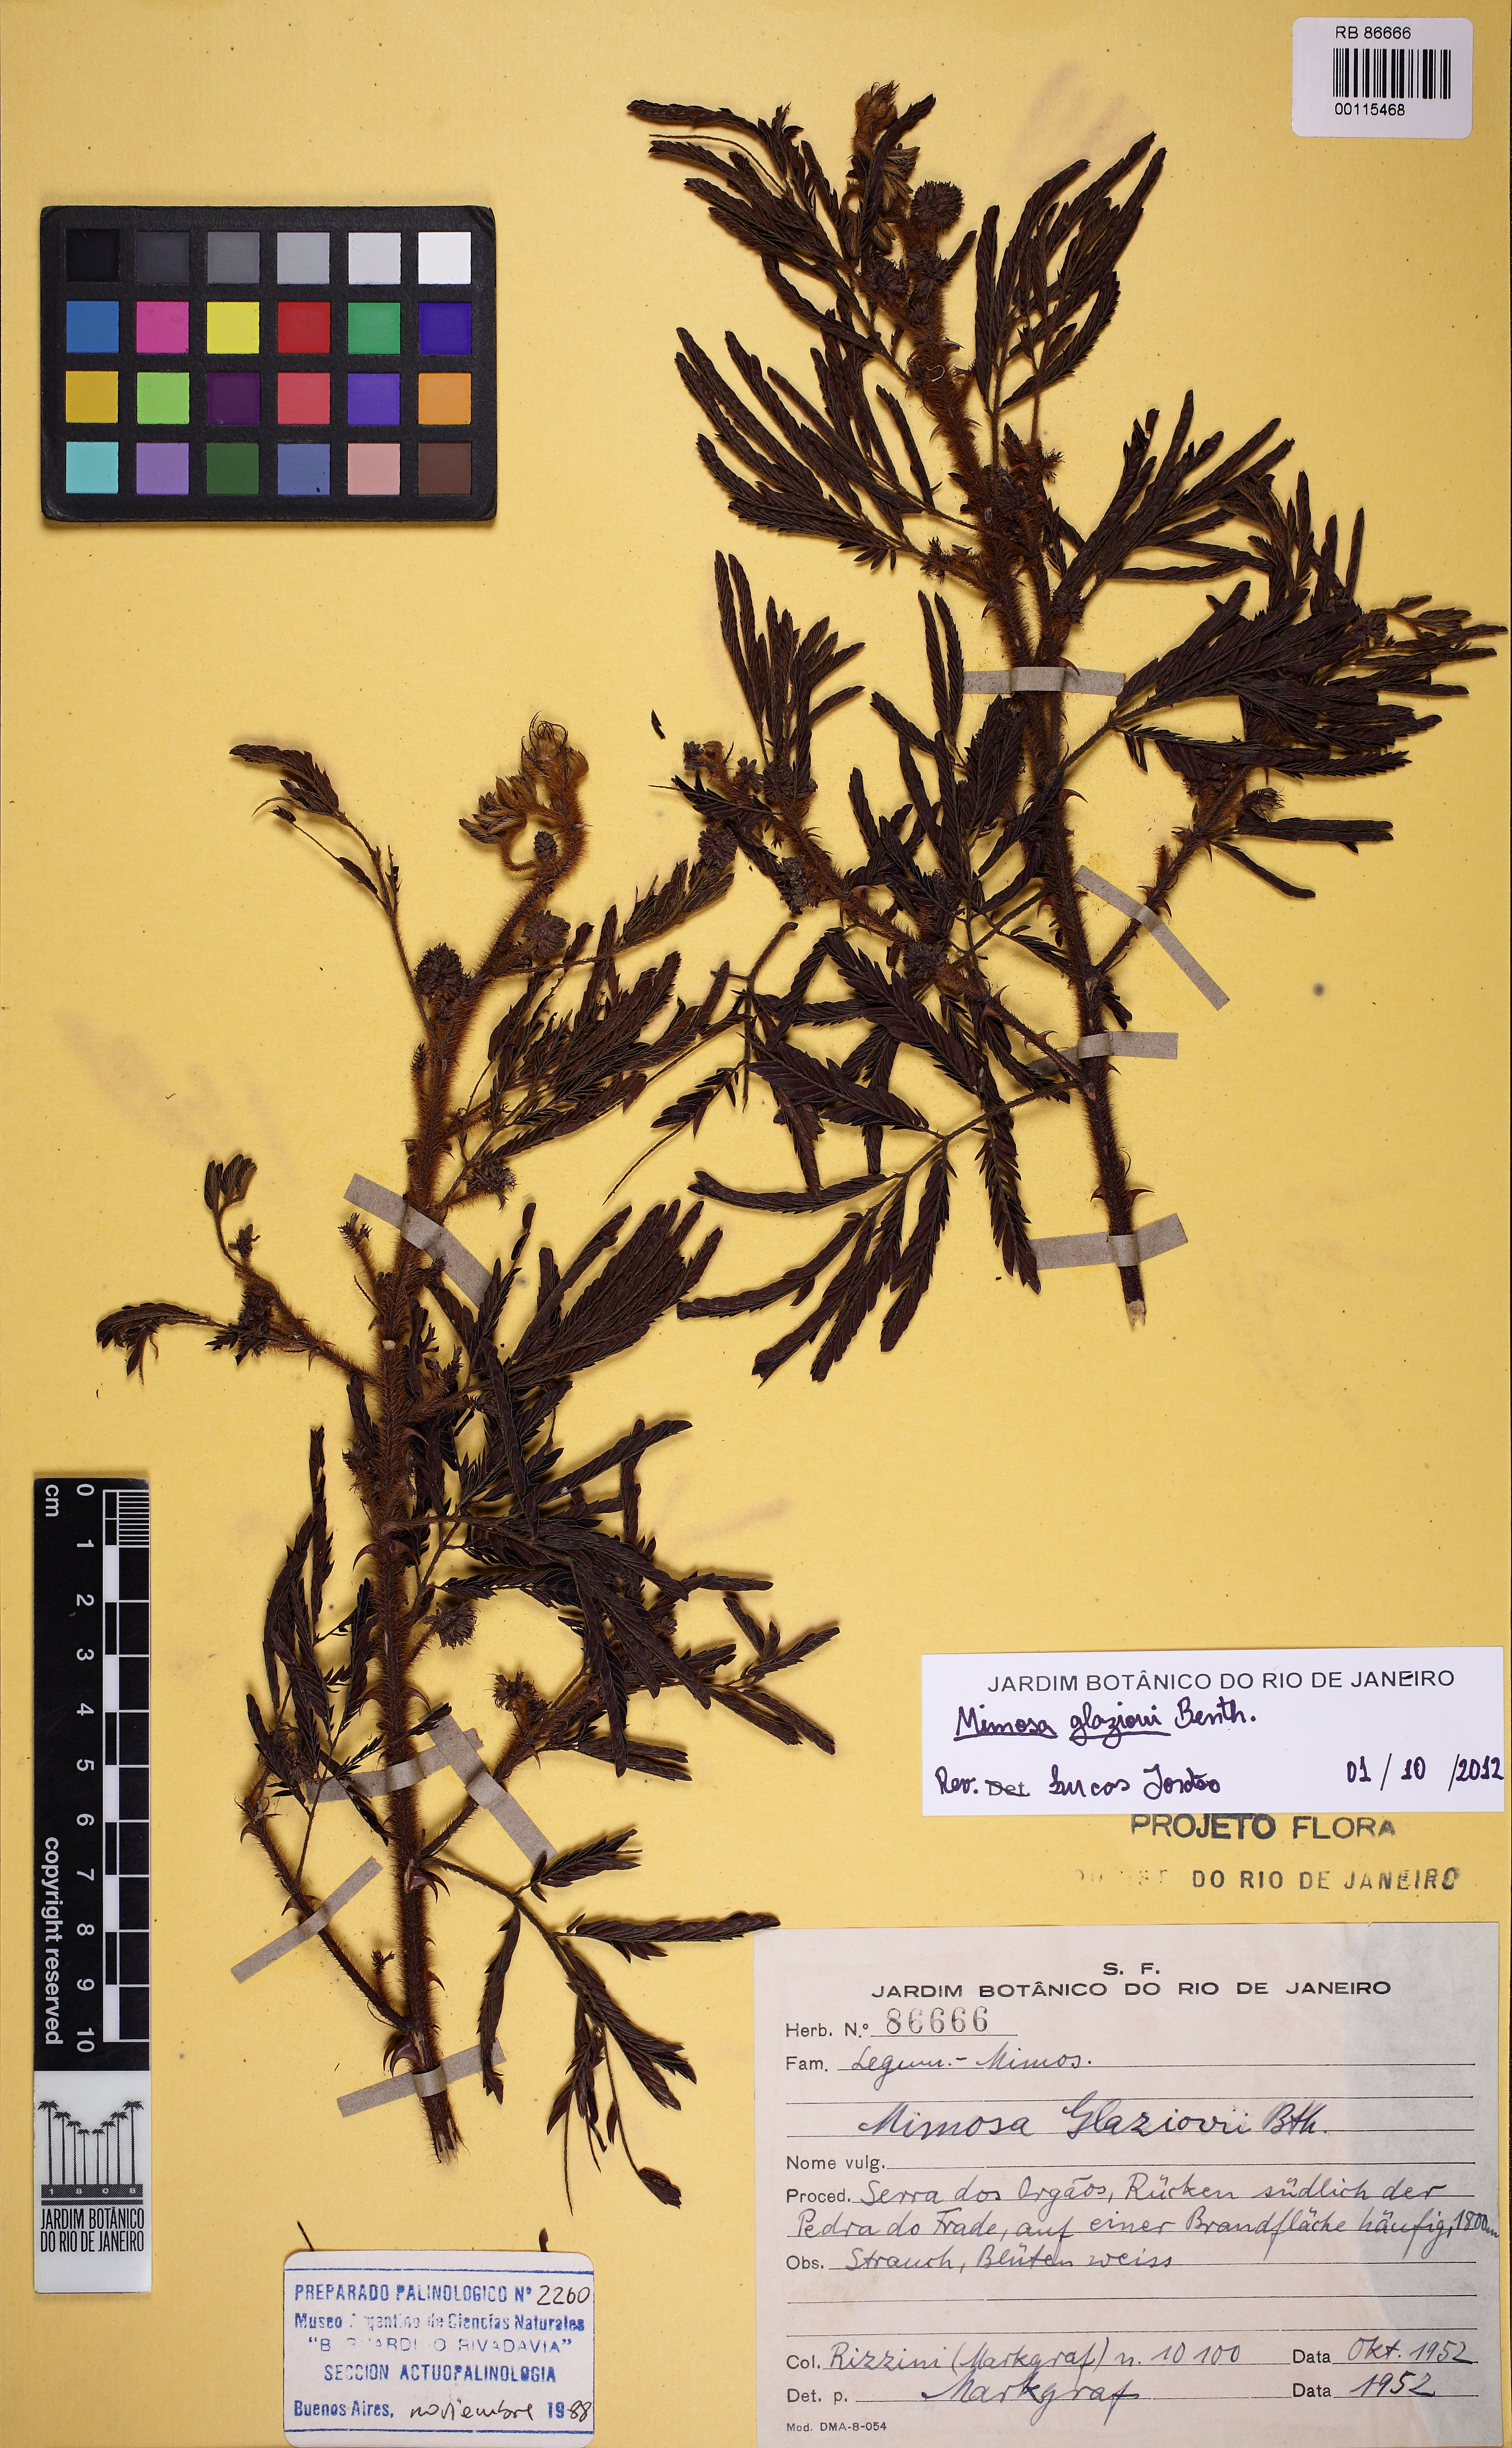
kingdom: Plantae
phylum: Tracheophyta
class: Magnoliopsida
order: Fabales
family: Fabaceae
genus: Mimosa
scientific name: Mimosa glaziovii
